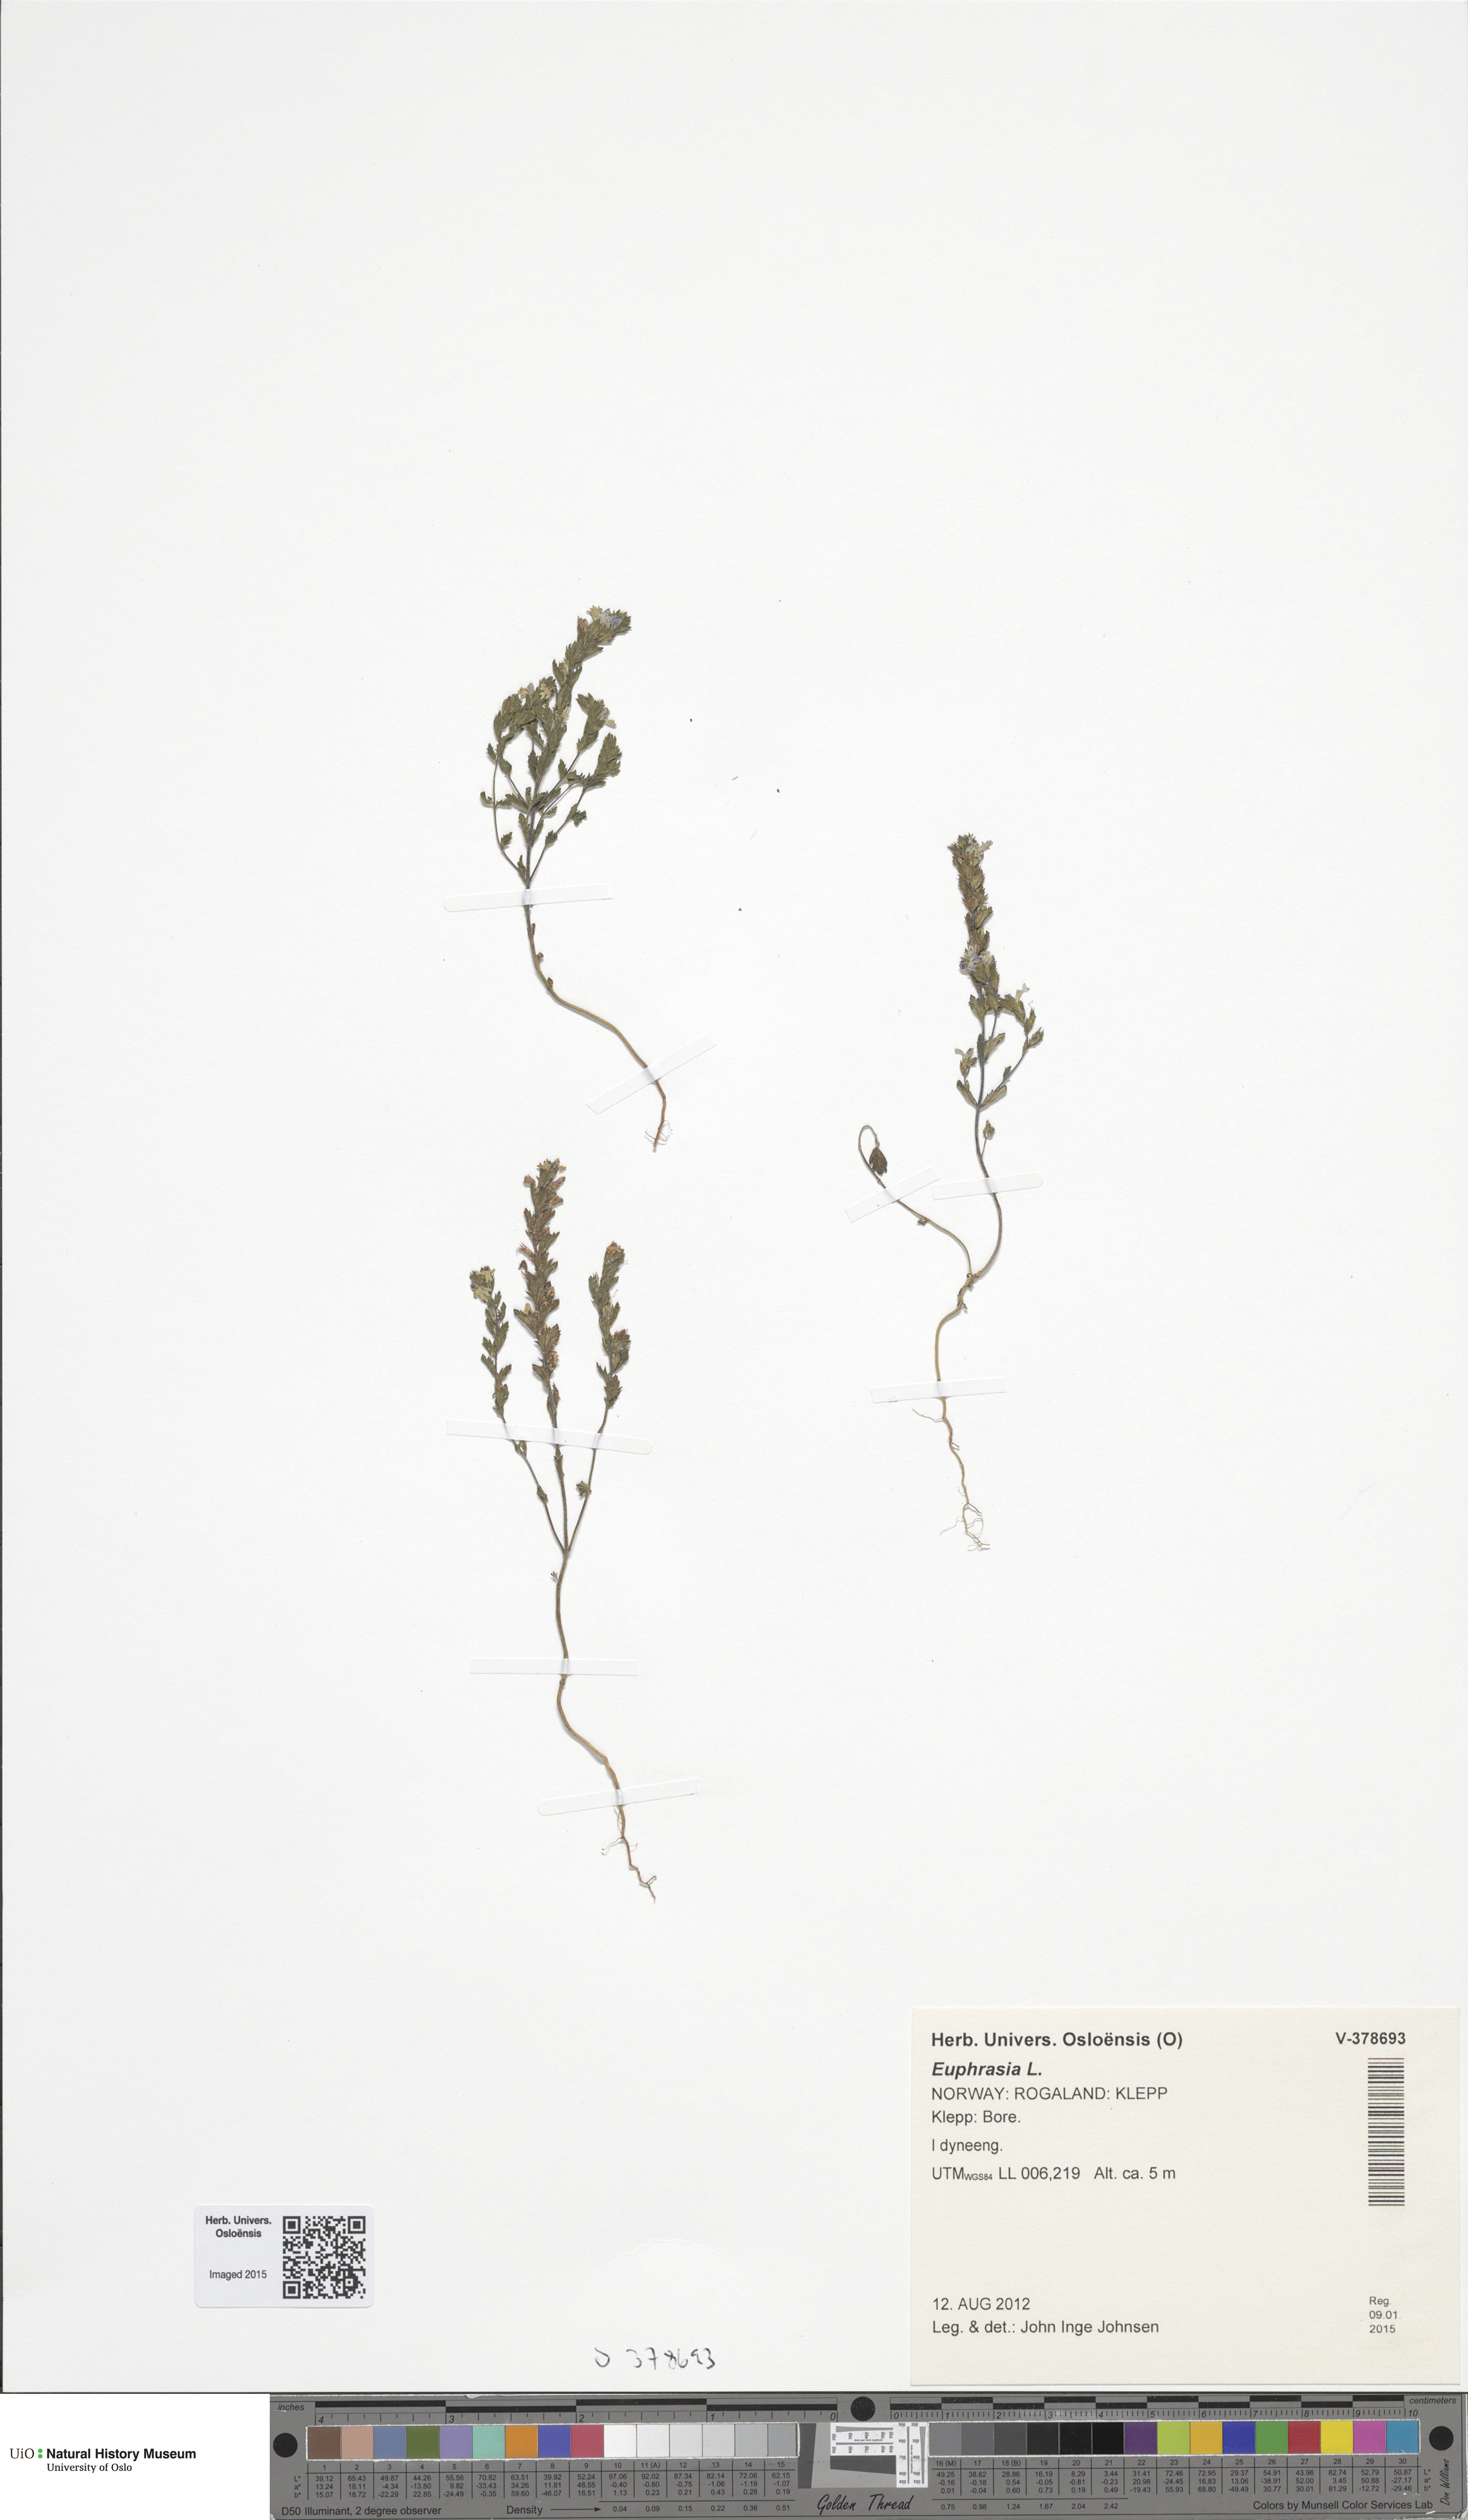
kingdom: Plantae
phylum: Tracheophyta
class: Magnoliopsida
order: Lamiales
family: Orobanchaceae
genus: Euphrasia
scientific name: Euphrasia
